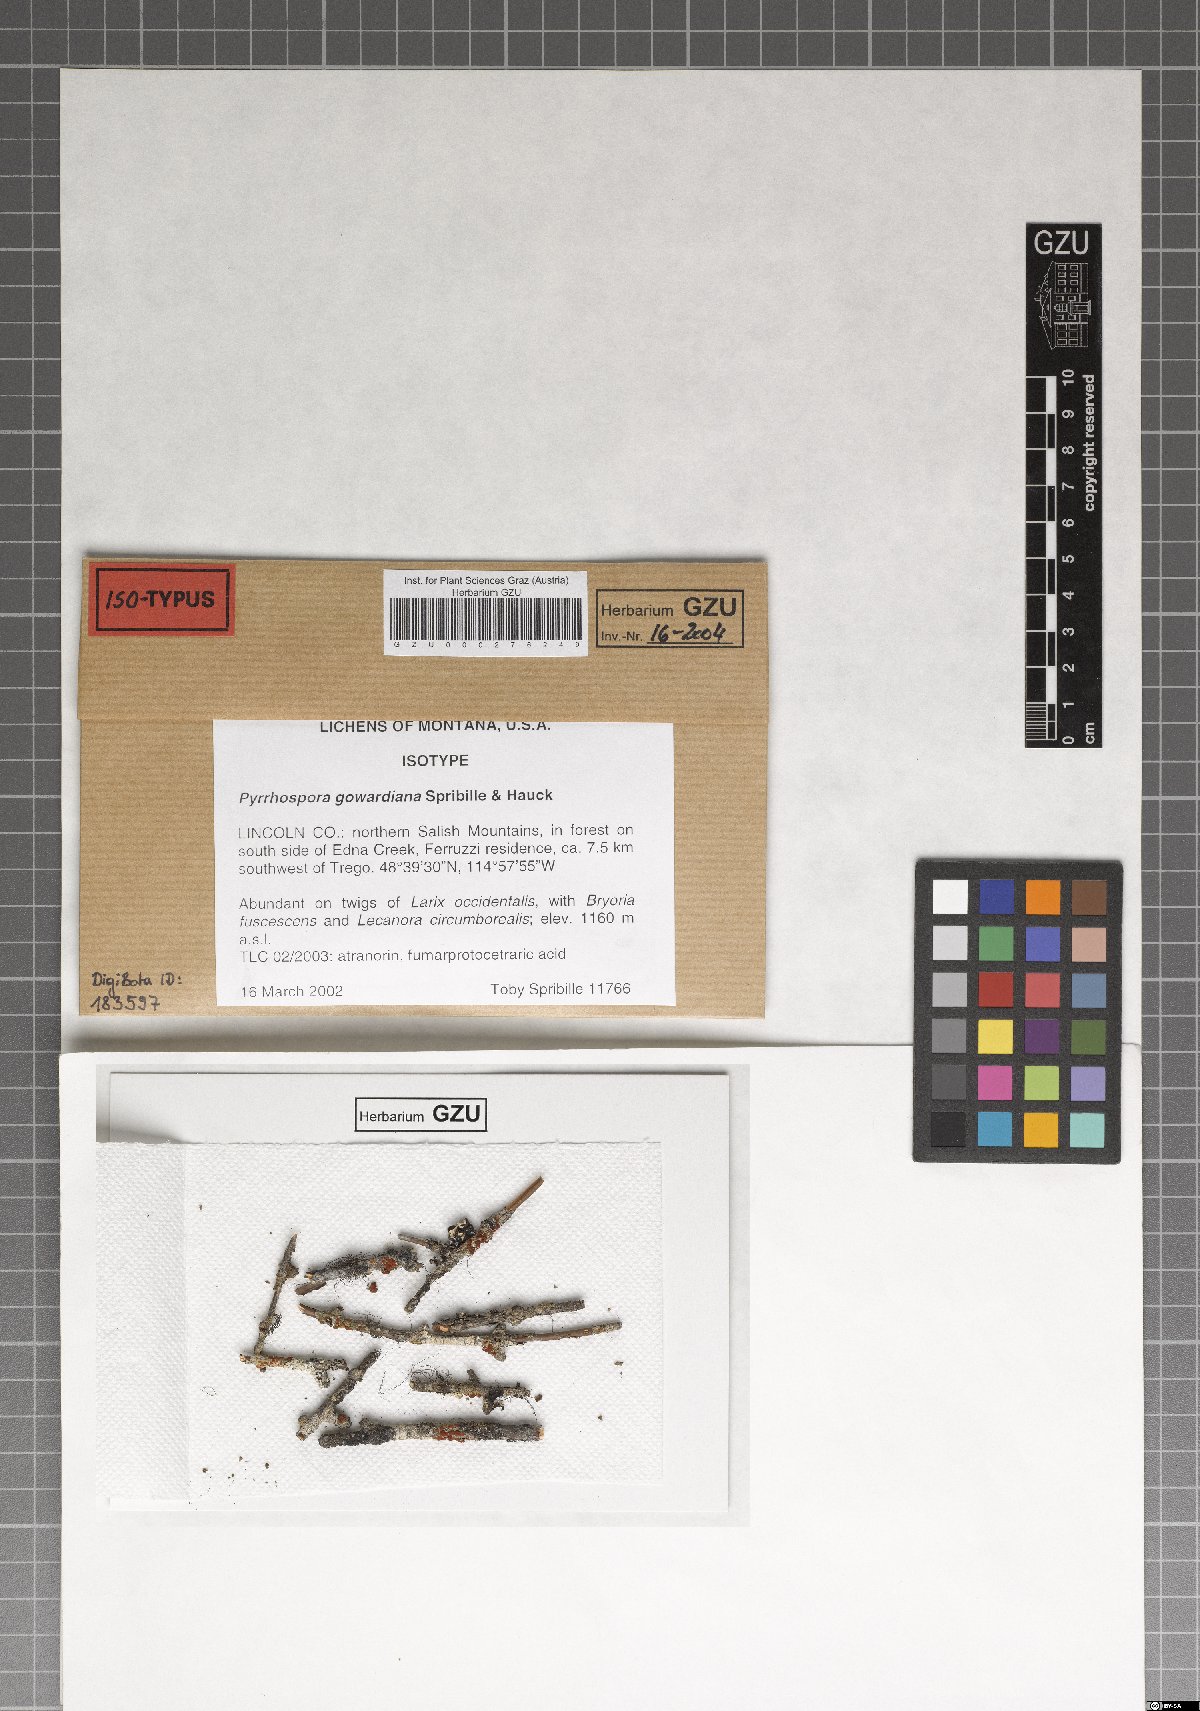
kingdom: Fungi
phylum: Ascomycota
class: Lecanoromycetes
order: Lecanorales
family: Ramboldiaceae
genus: Ramboldia
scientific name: Ramboldia gowardiana
